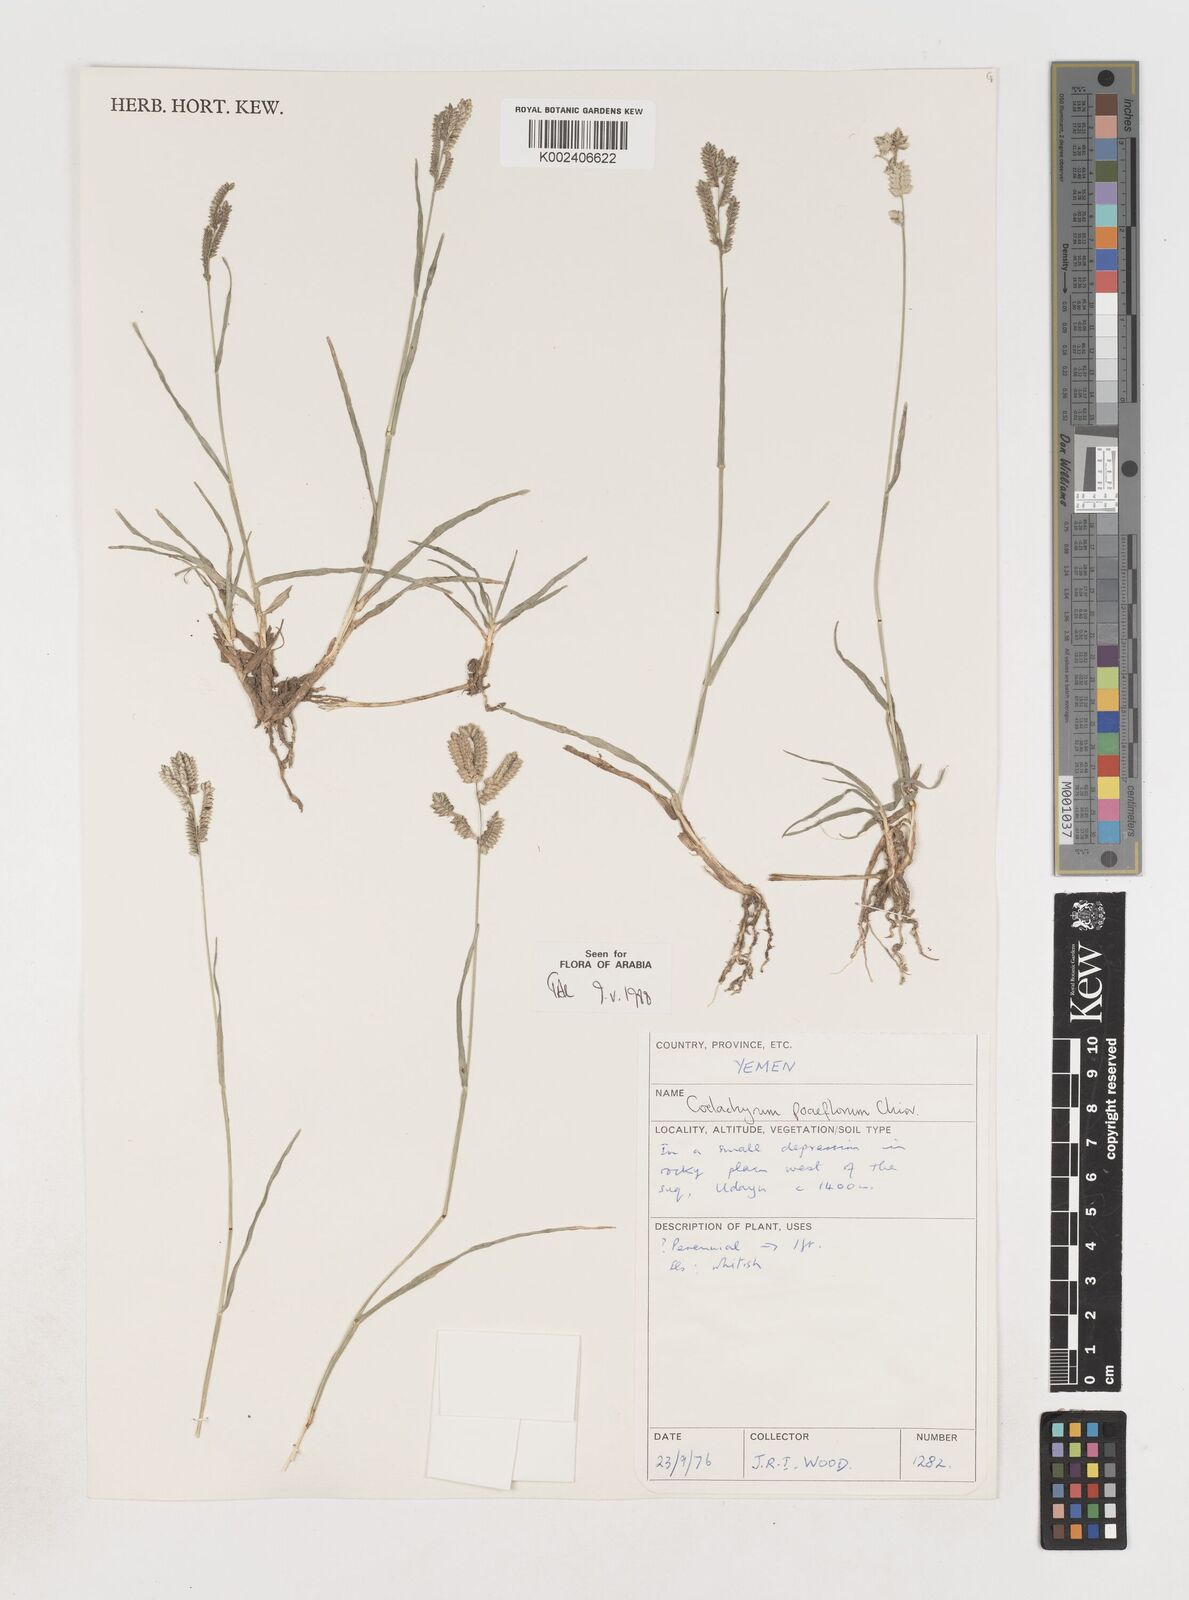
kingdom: Plantae
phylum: Tracheophyta
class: Liliopsida
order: Poales
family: Poaceae
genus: Coelachyrum
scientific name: Coelachyrum poiflorum
